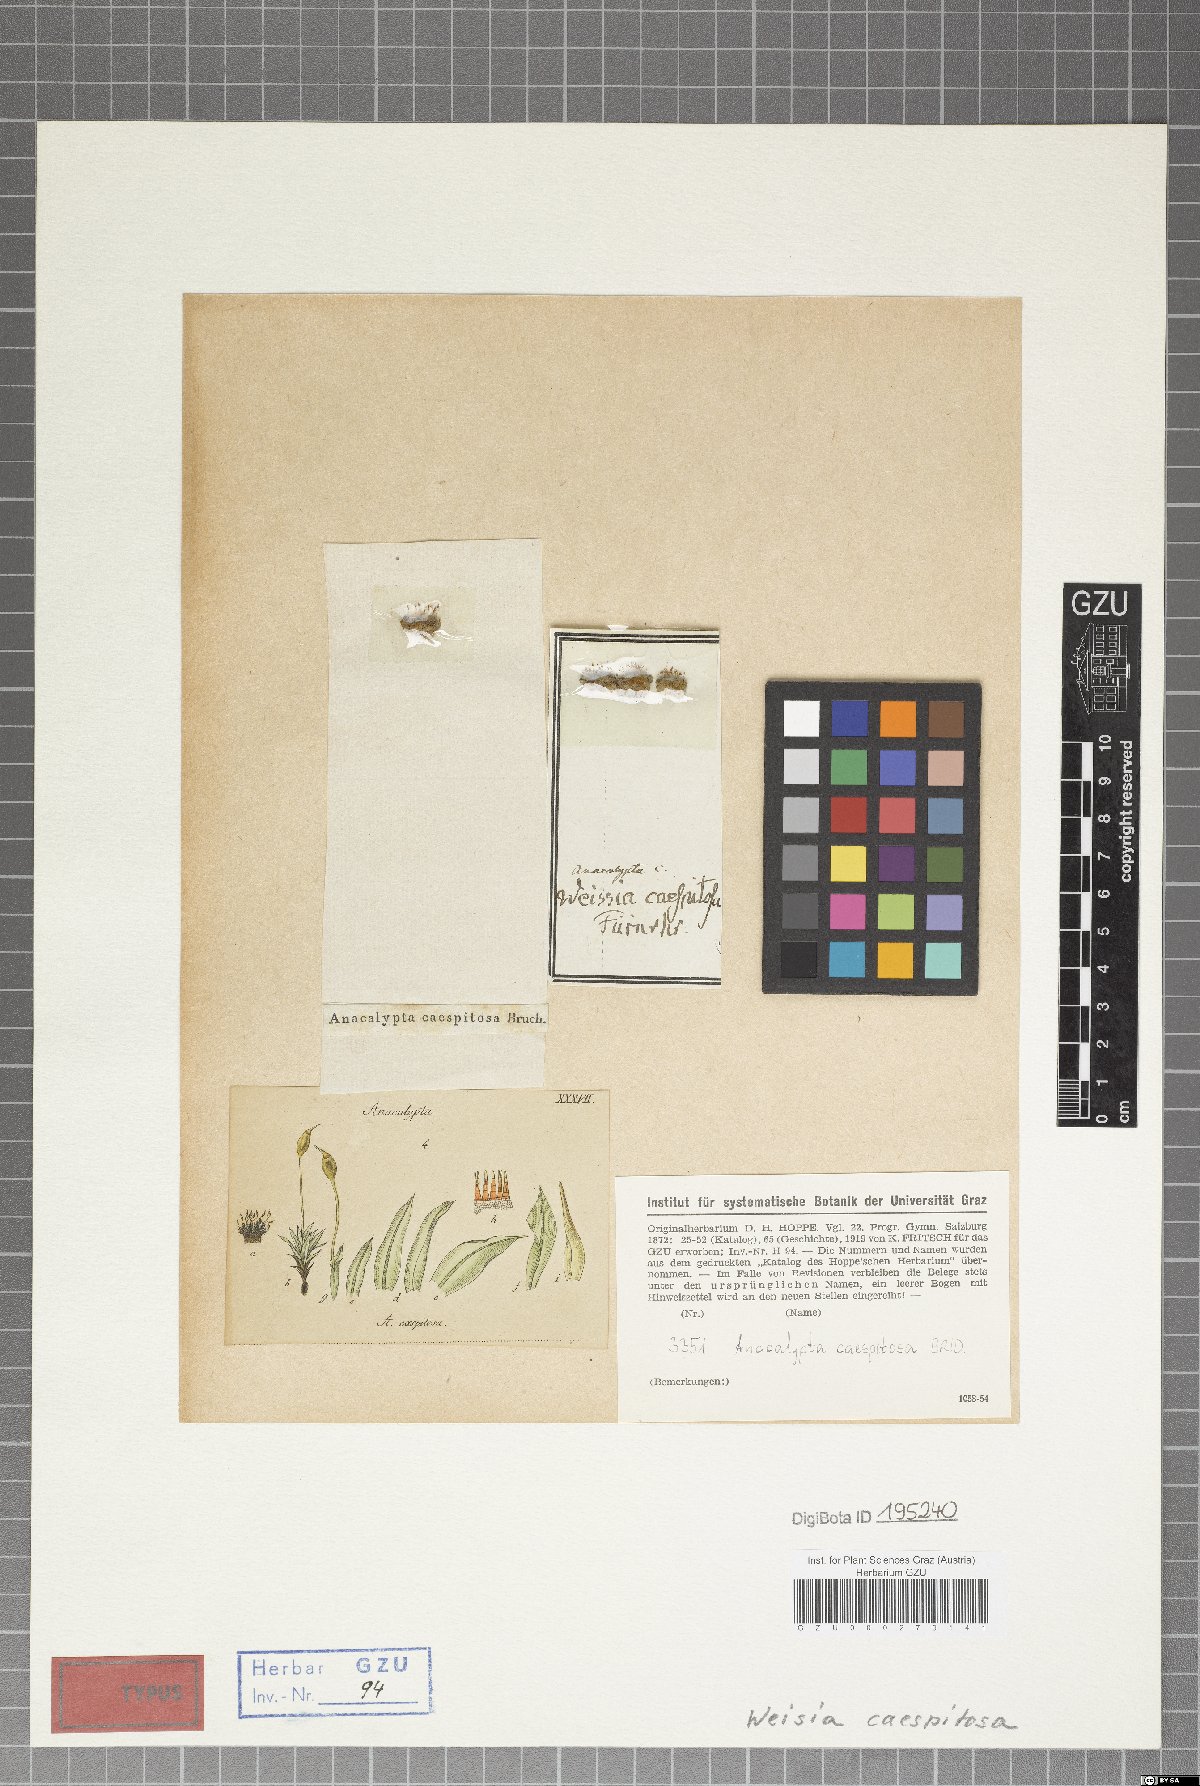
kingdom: Plantae
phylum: Bryophyta
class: Bryopsida
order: Pottiales
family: Pottiaceae
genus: Pottiopsis
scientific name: Pottiopsis caespitosa
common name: Round-fruited pottia
